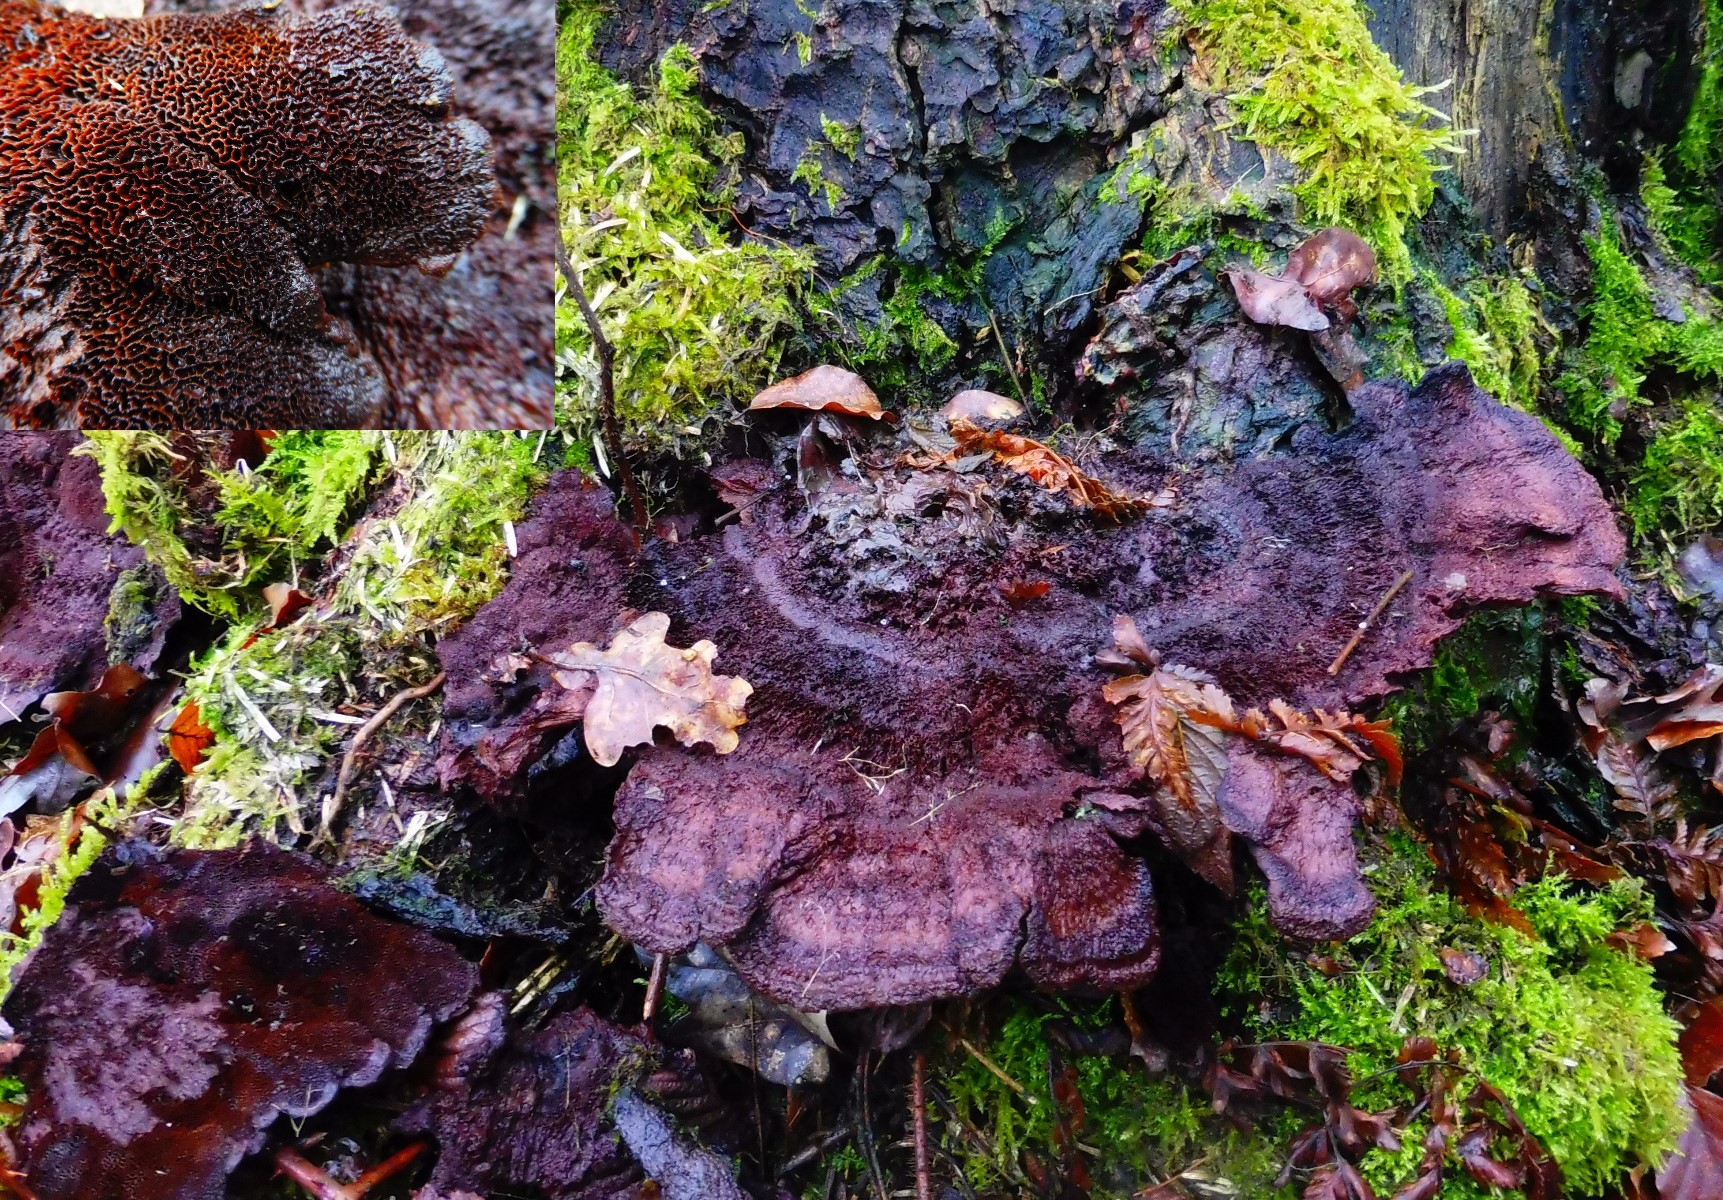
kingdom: Fungi
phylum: Basidiomycota
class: Agaricomycetes
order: Polyporales
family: Laetiporaceae
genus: Phaeolus
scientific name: Phaeolus schweinitzii
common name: brunporesvamp
